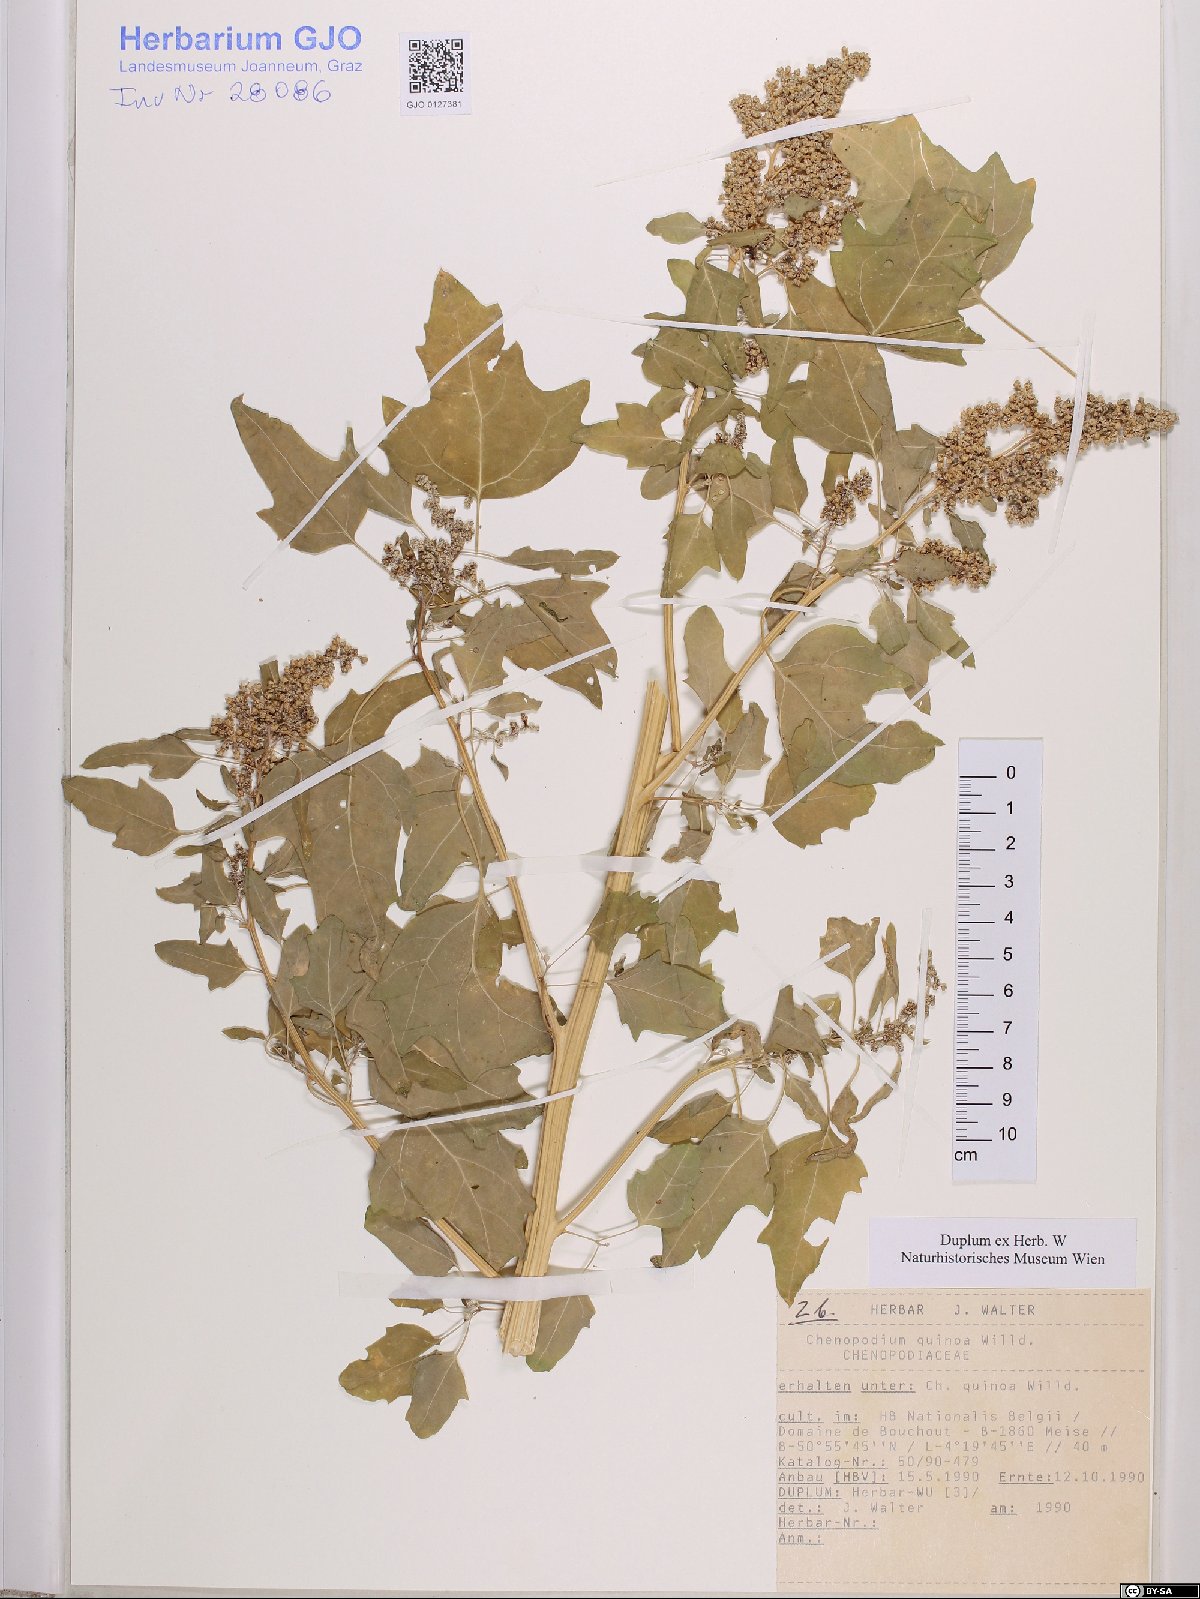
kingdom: Plantae
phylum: Tracheophyta
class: Magnoliopsida
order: Caryophyllales
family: Amaranthaceae
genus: Chenopodium
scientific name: Chenopodium quinoa
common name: Quinoa
